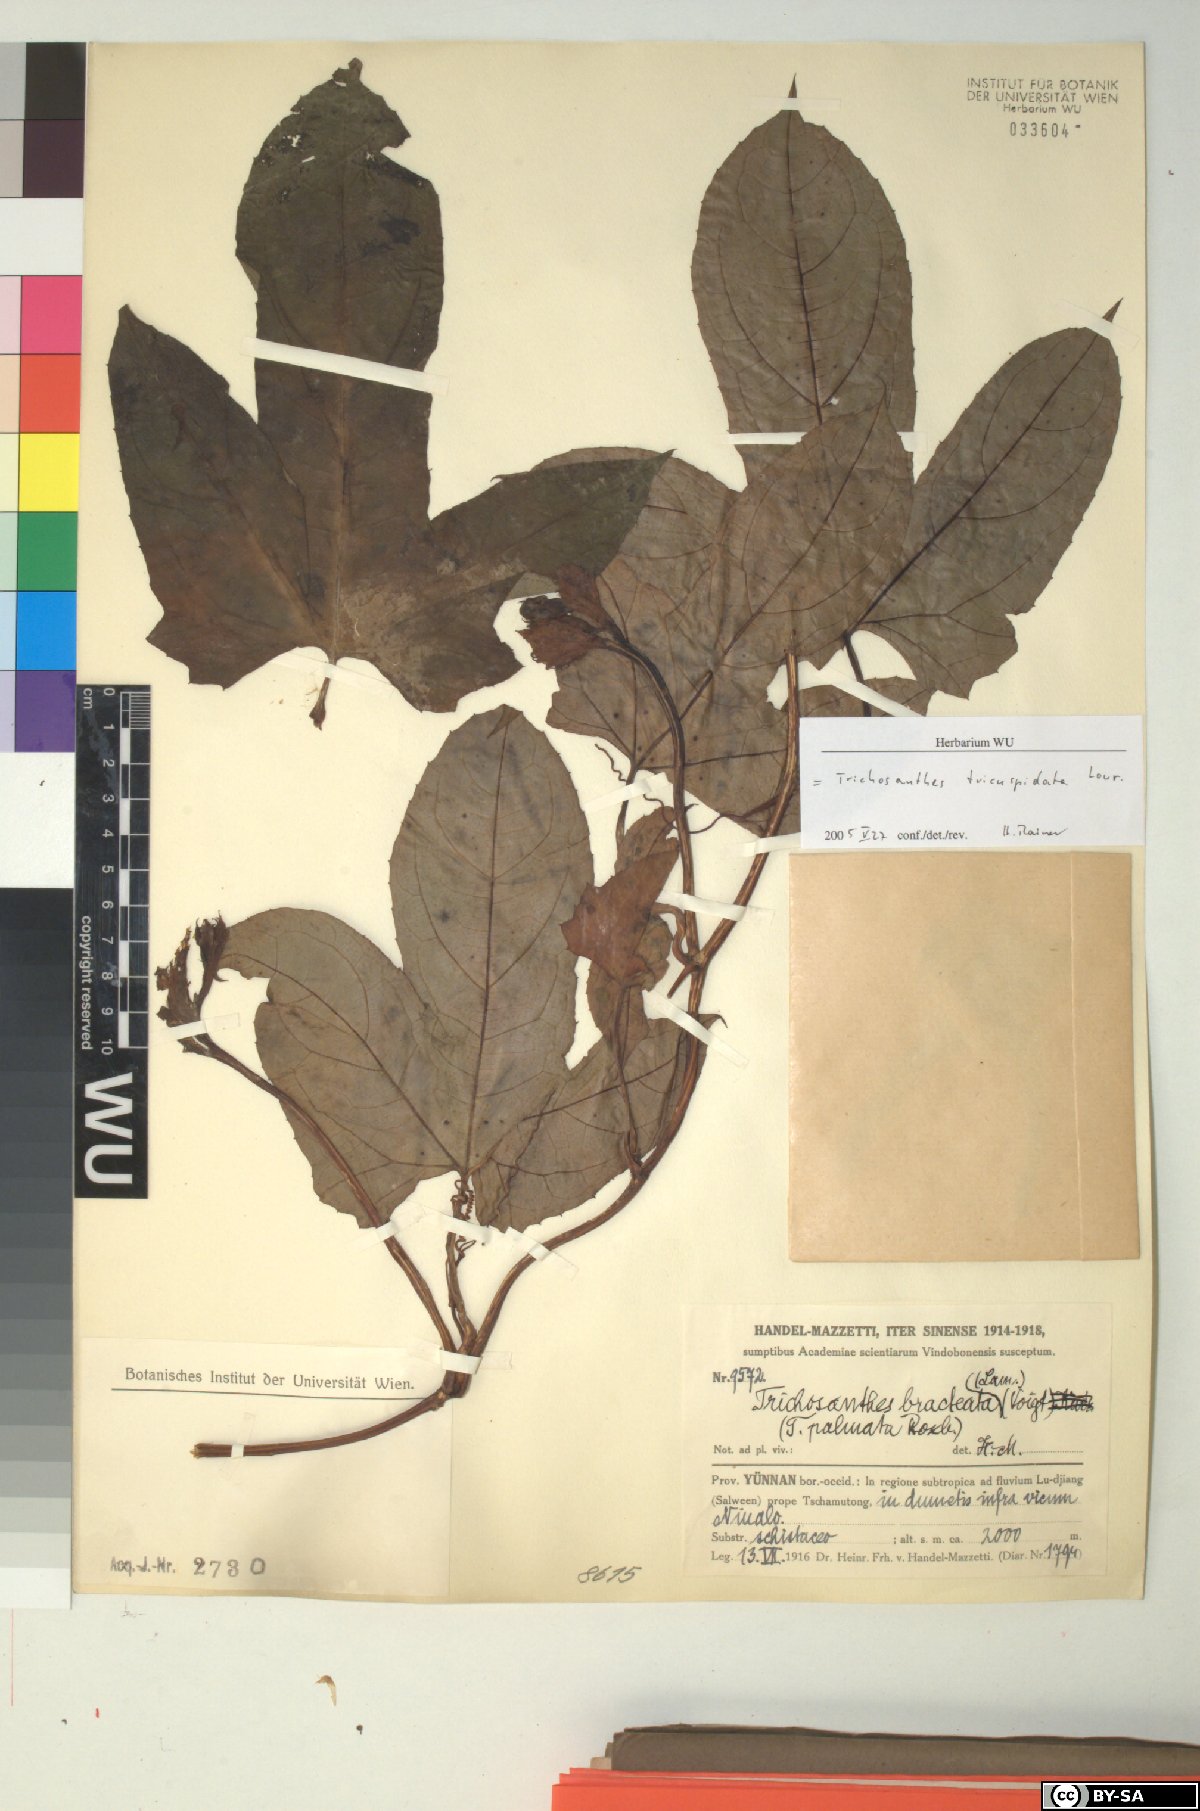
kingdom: Plantae
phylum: Tracheophyta
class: Magnoliopsida
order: Cucurbitales
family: Cucurbitaceae
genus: Trichosanthes
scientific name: Trichosanthes tricuspidata
